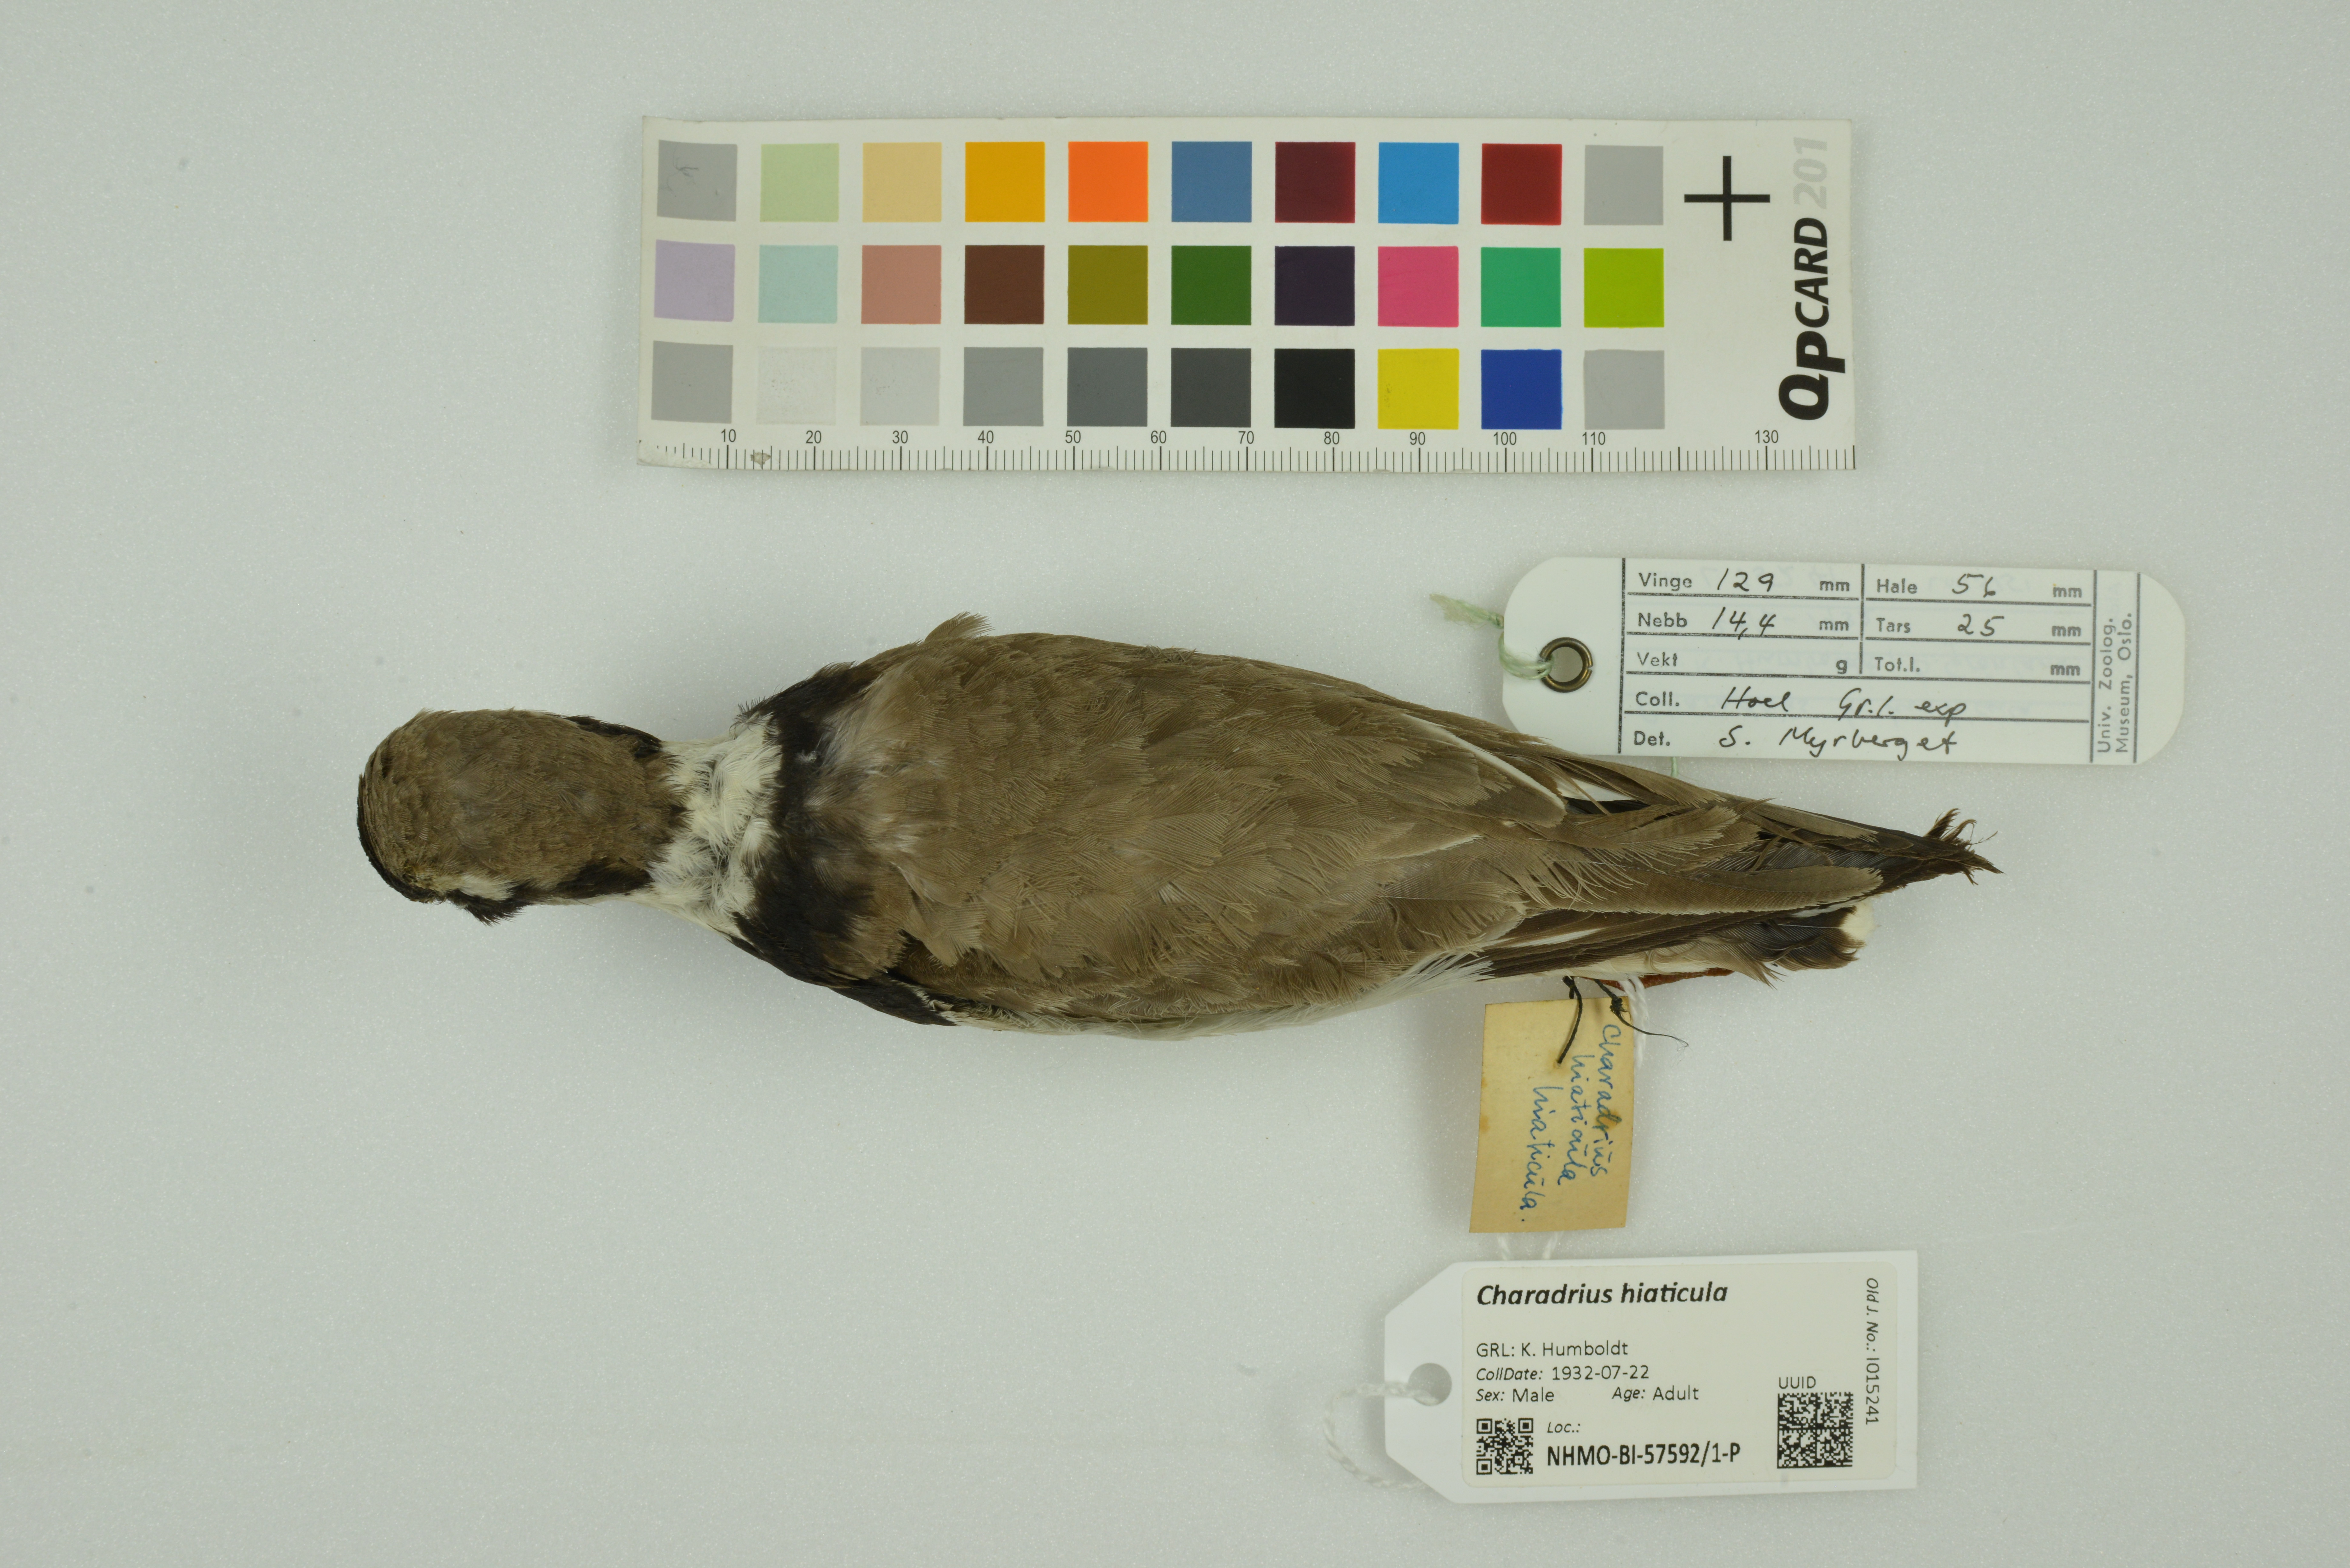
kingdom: Animalia
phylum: Chordata
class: Aves
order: Charadriiformes
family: Charadriidae
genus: Charadrius
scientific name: Charadrius hiaticula
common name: Common ringed plover
